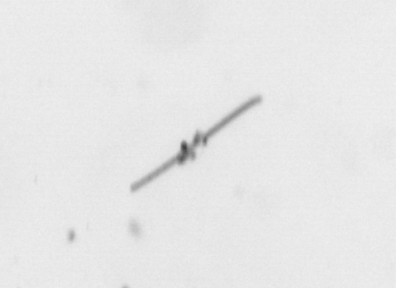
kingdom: Chromista
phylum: Ochrophyta
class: Bacillariophyceae
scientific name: Bacillariophyceae
